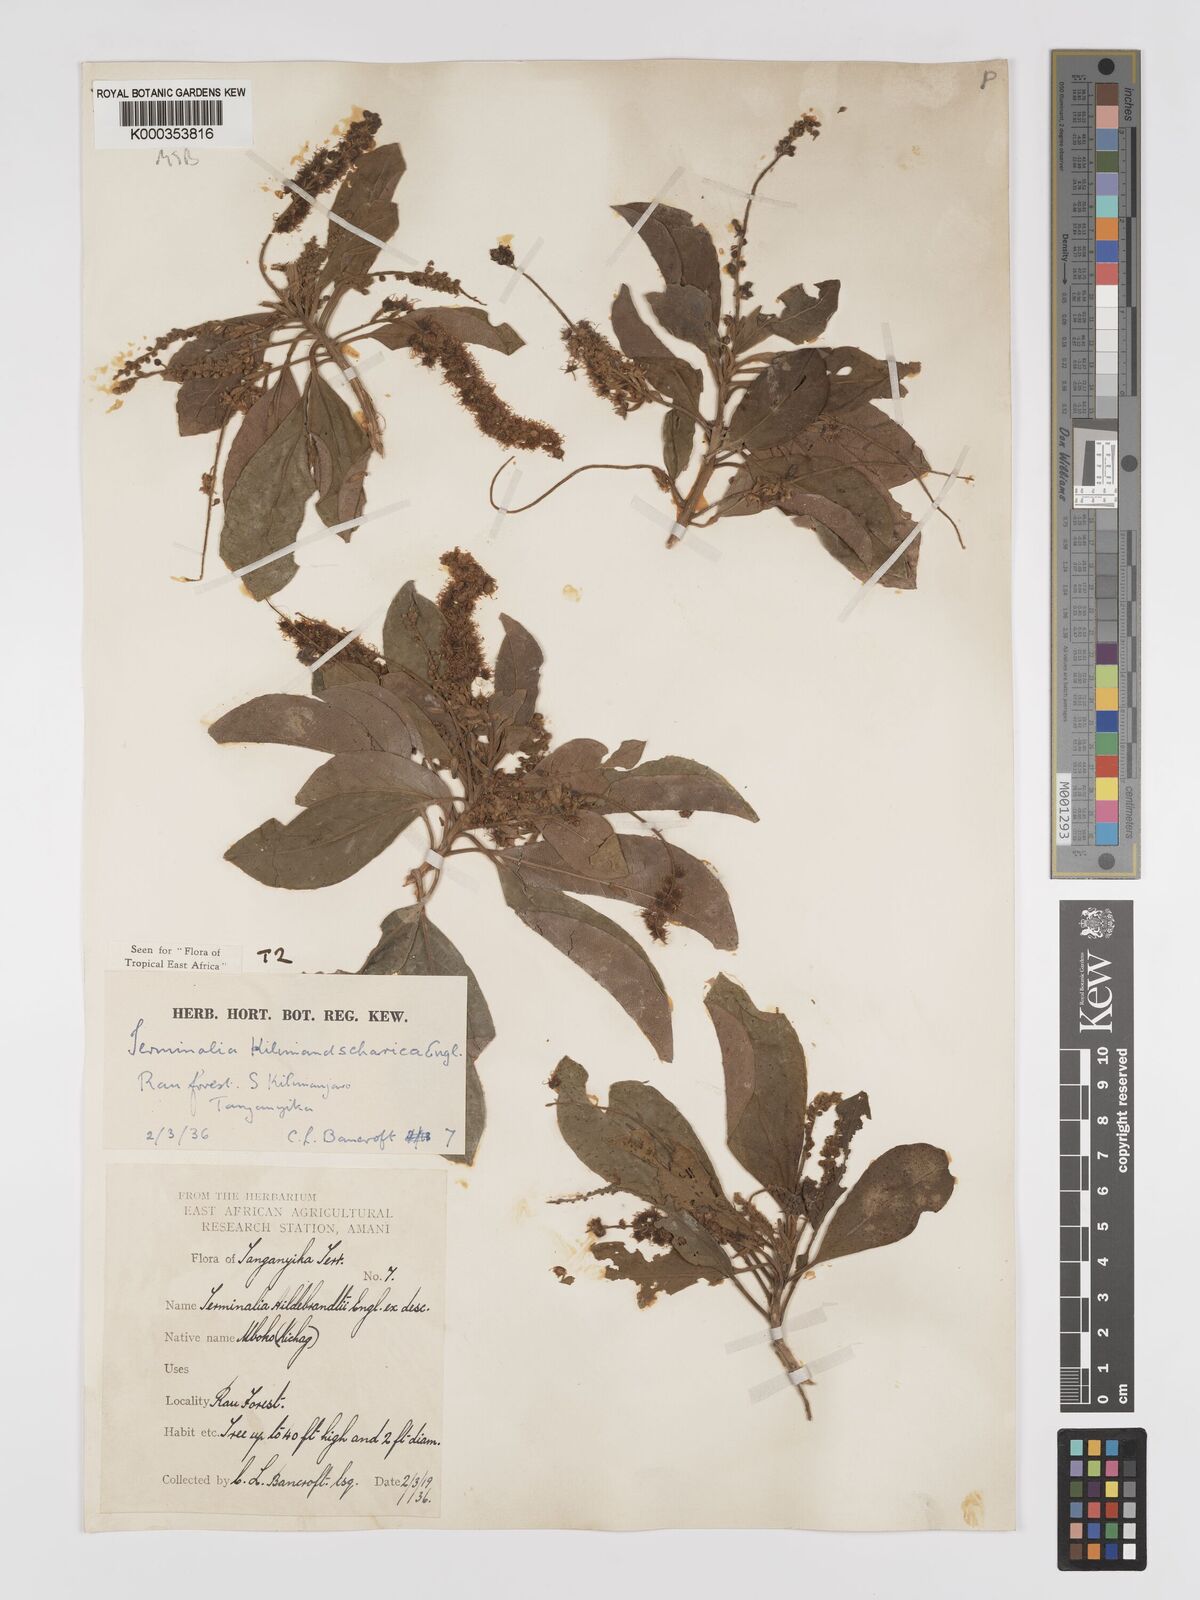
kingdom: Plantae
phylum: Tracheophyta
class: Magnoliopsida
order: Myrtales
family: Combretaceae
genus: Terminalia
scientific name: Terminalia kilimandscharica
